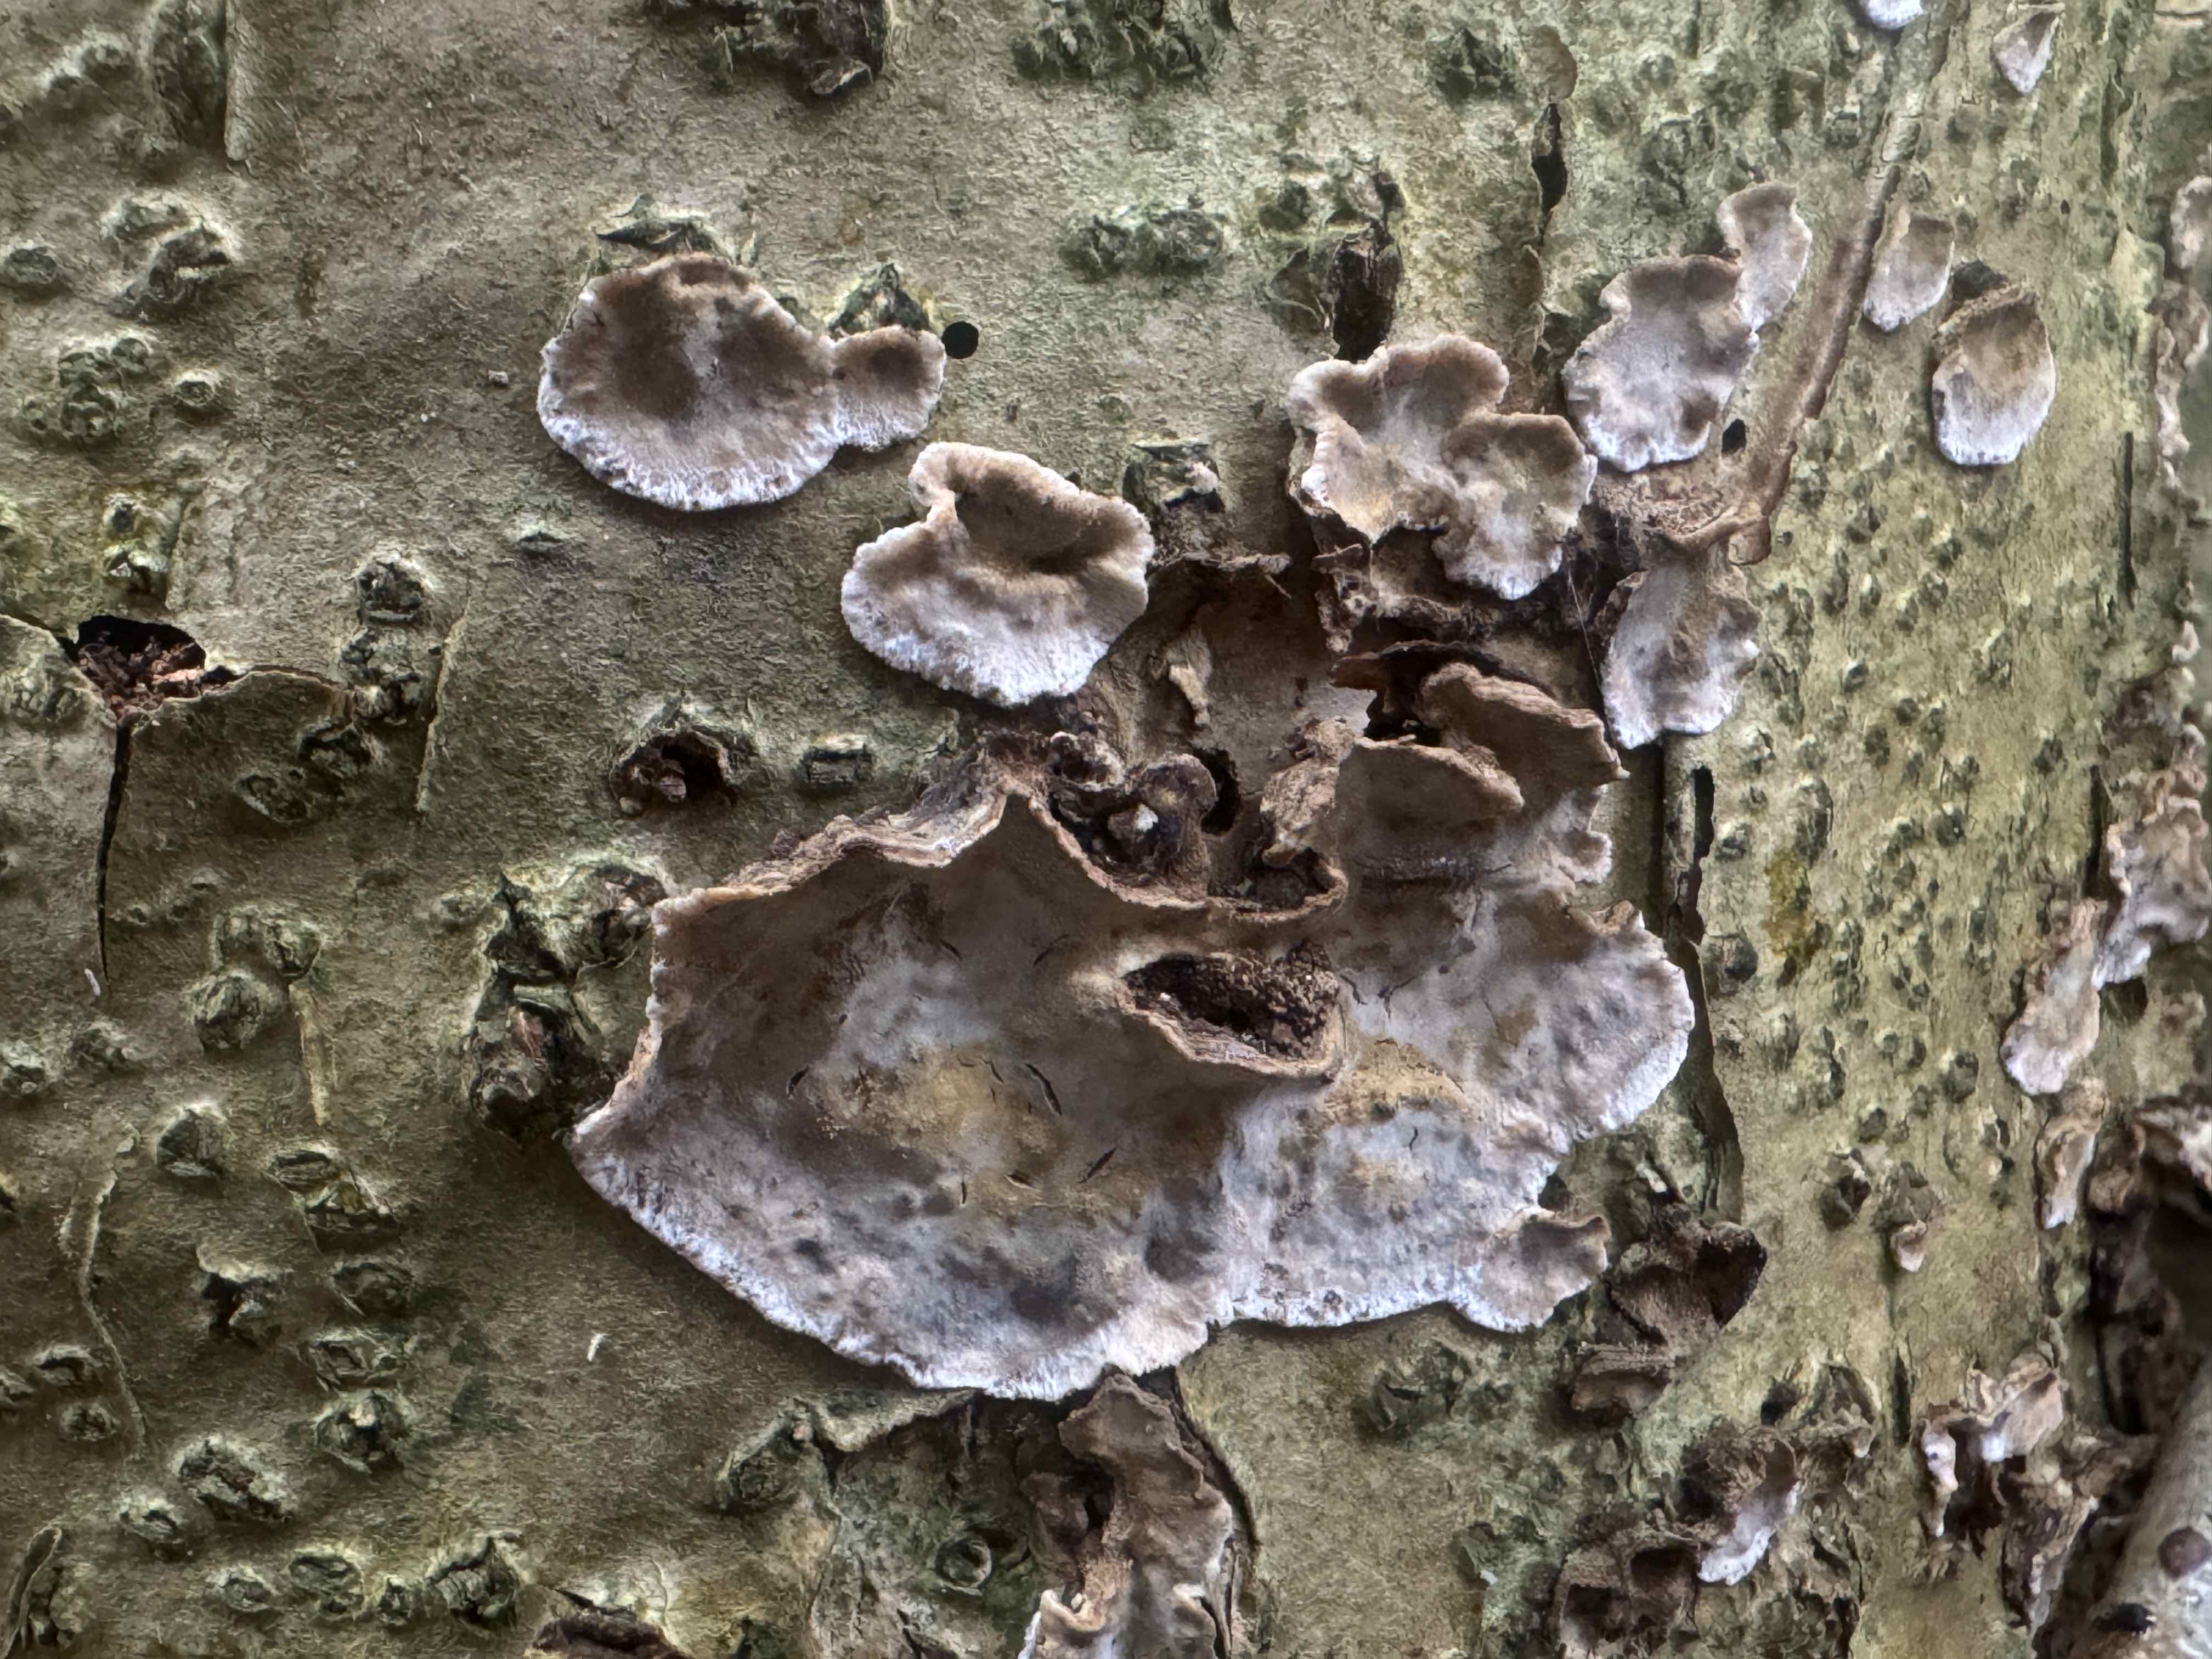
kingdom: Fungi
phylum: Basidiomycota
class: Agaricomycetes
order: Russulales
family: Stereaceae
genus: Stereum
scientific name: Stereum rugosum
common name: rynket lædersvamp
